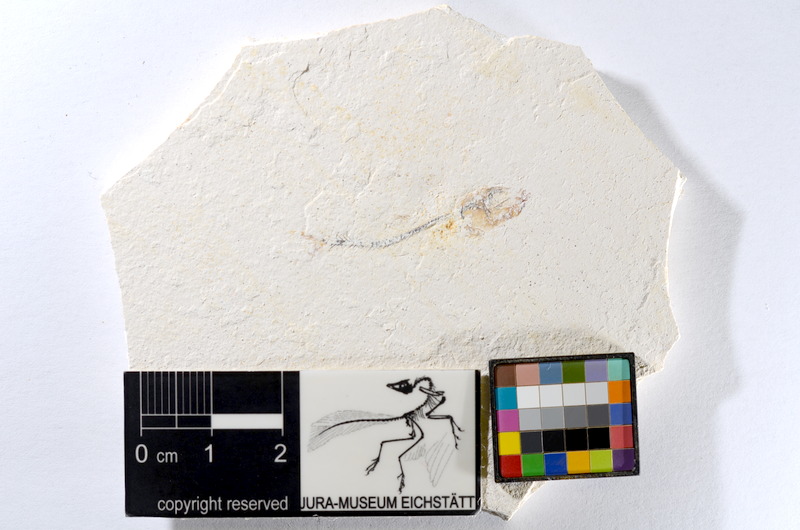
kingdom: Animalia
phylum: Chordata
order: Salmoniformes
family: Orthogonikleithridae
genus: Orthogonikleithrus
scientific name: Orthogonikleithrus hoelli
